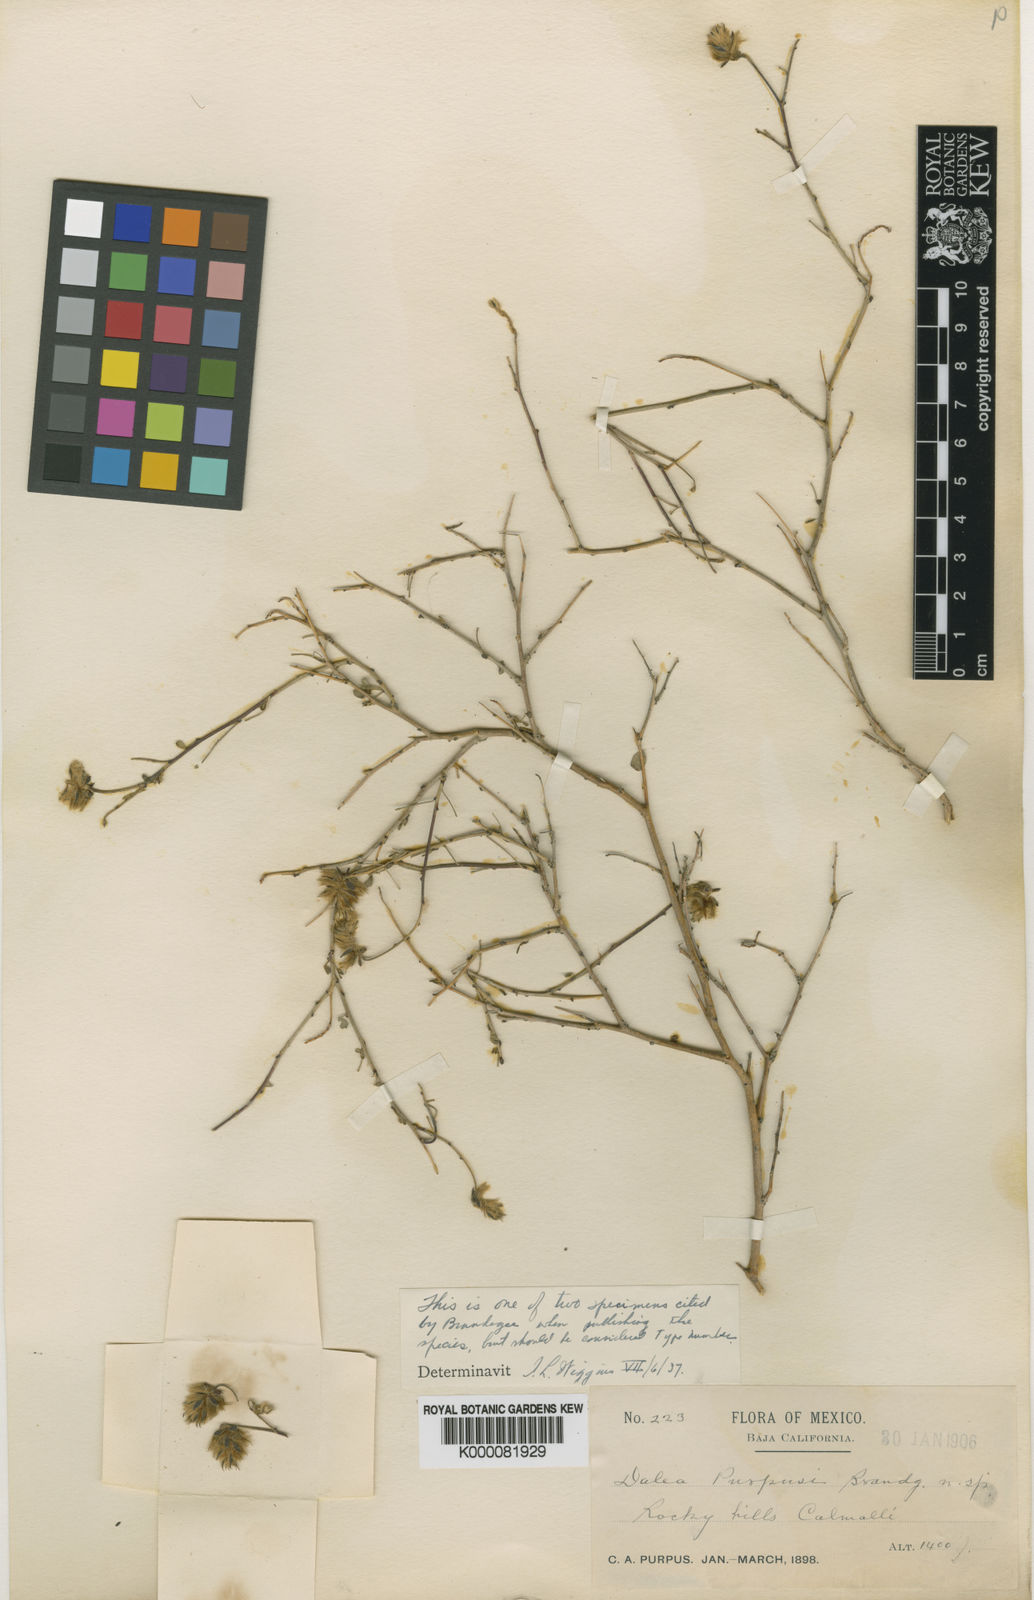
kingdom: Plantae
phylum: Tracheophyta
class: Magnoliopsida
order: Fabales
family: Fabaceae
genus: Dalea
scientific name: Dalea purpusii
